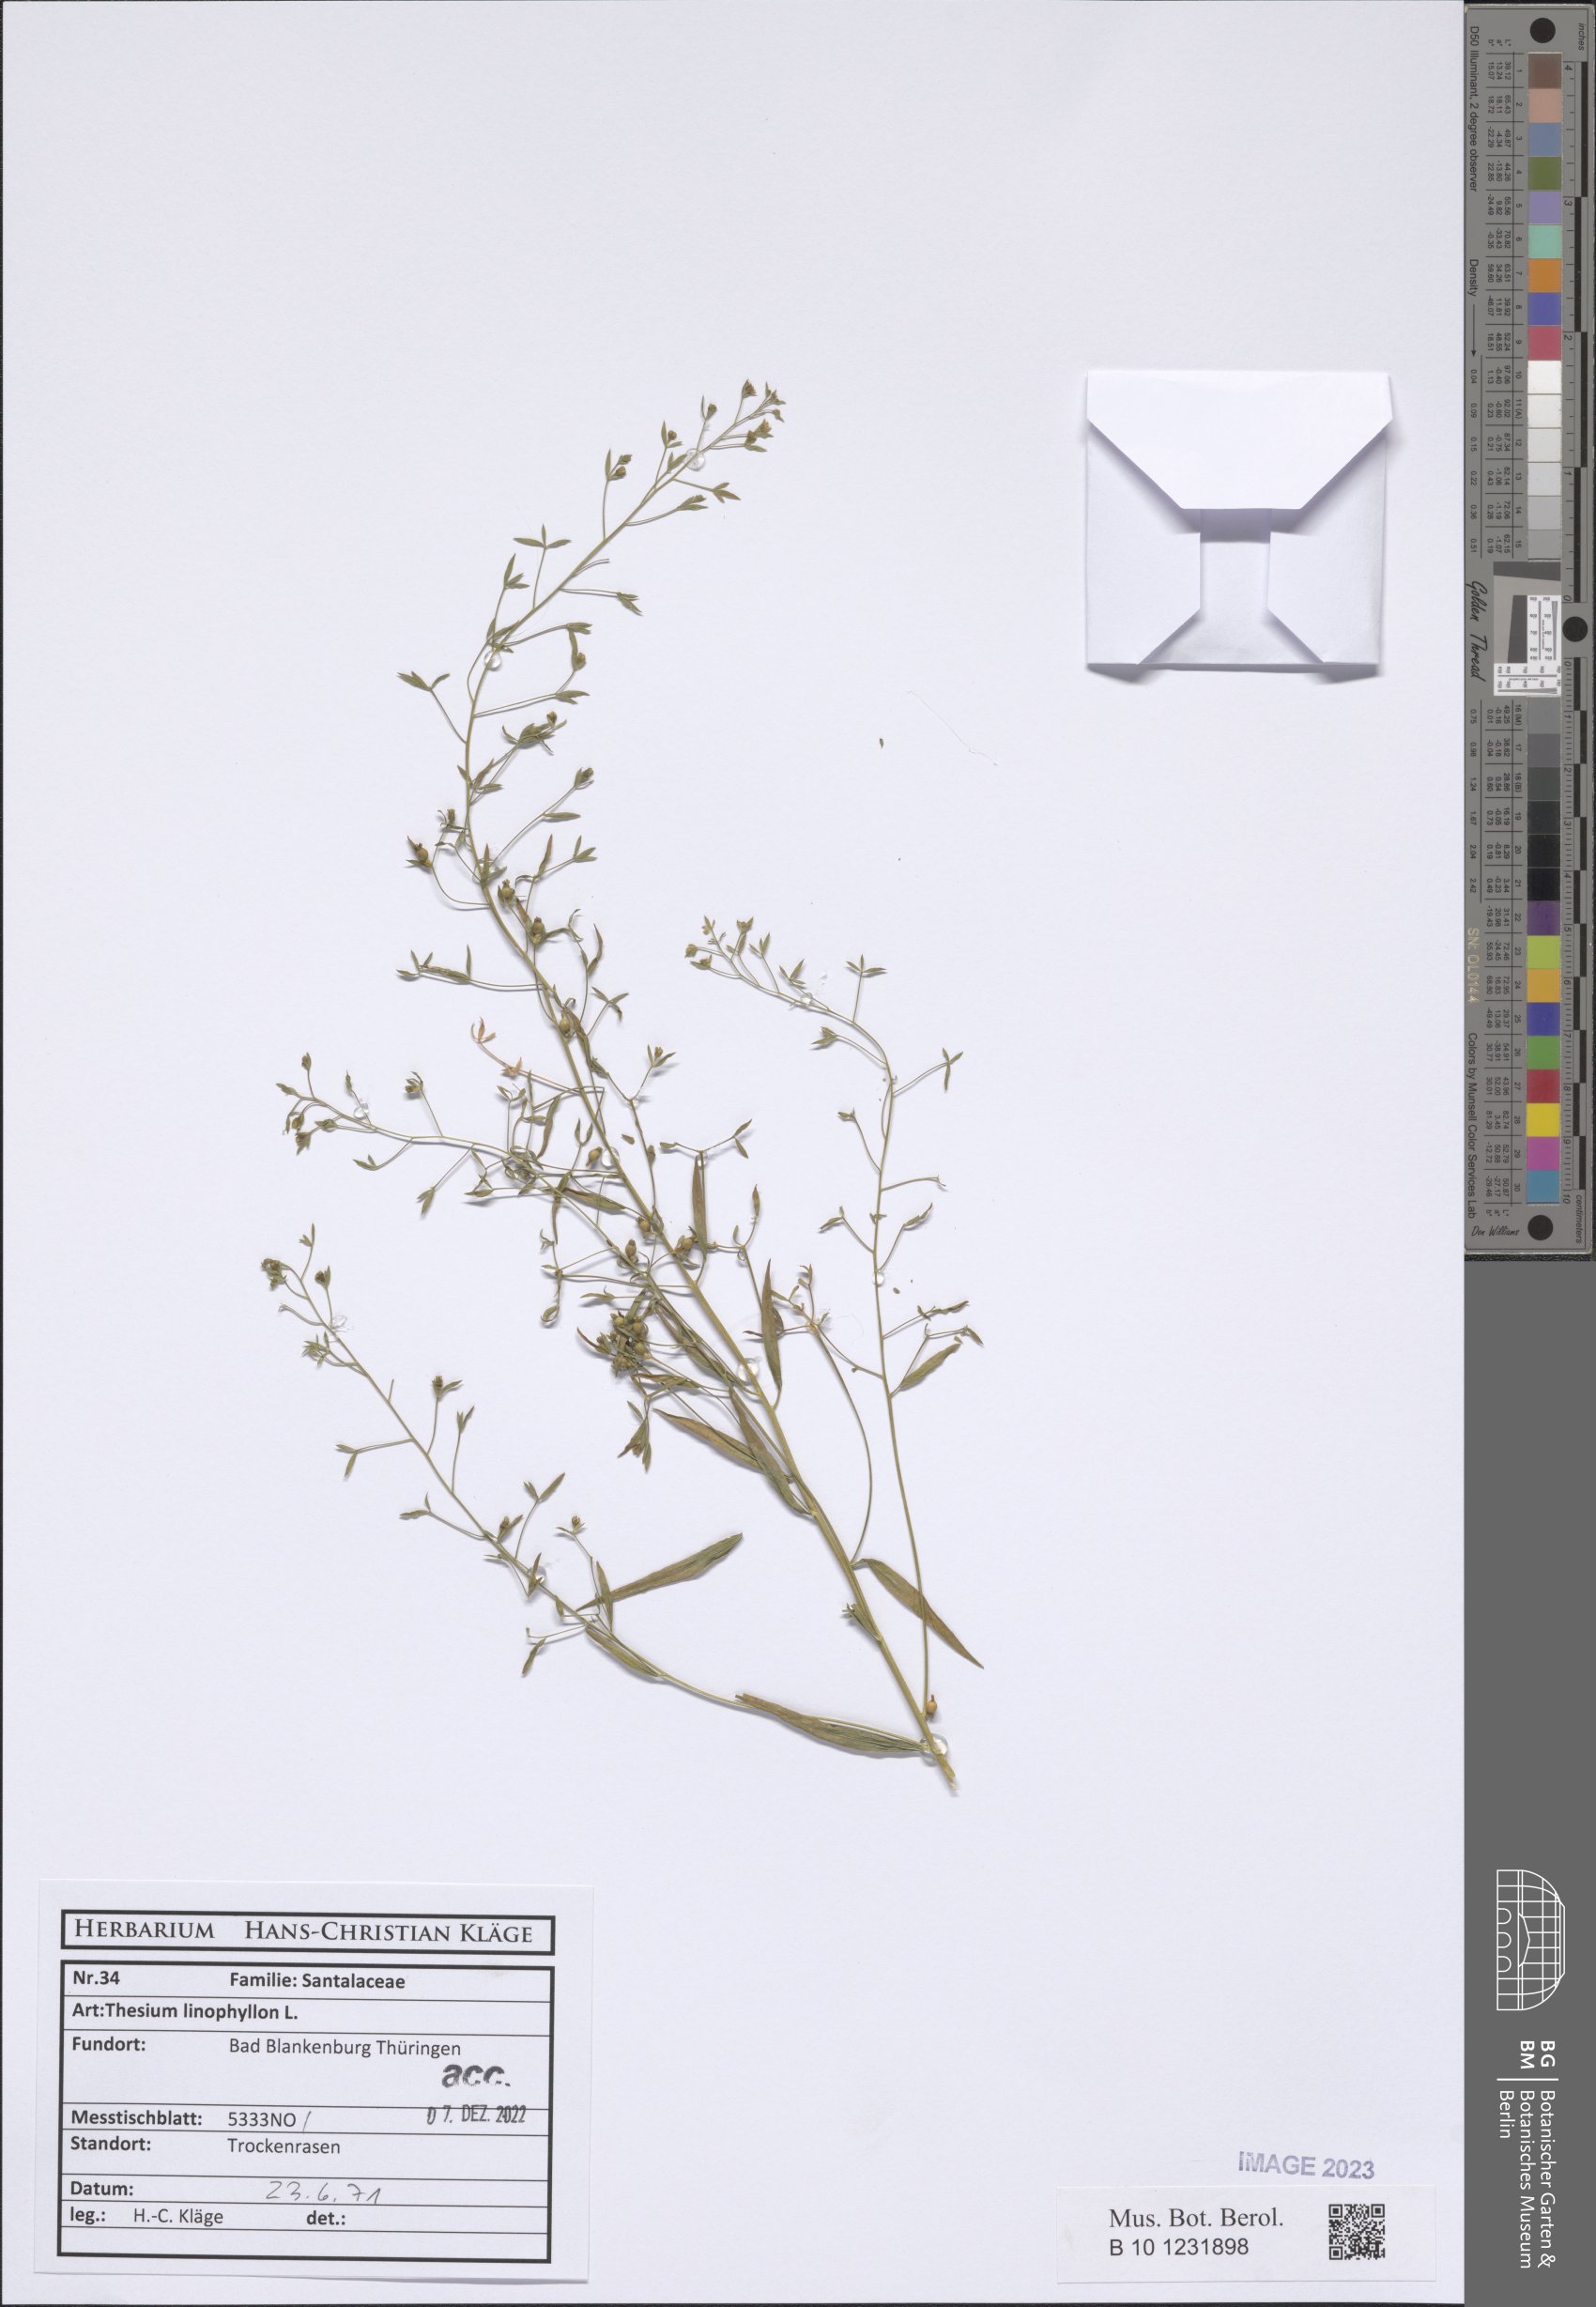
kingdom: Plantae
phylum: Tracheophyta
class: Magnoliopsida
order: Santalales
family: Thesiaceae
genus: Thesium
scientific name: Thesium linophyllon
